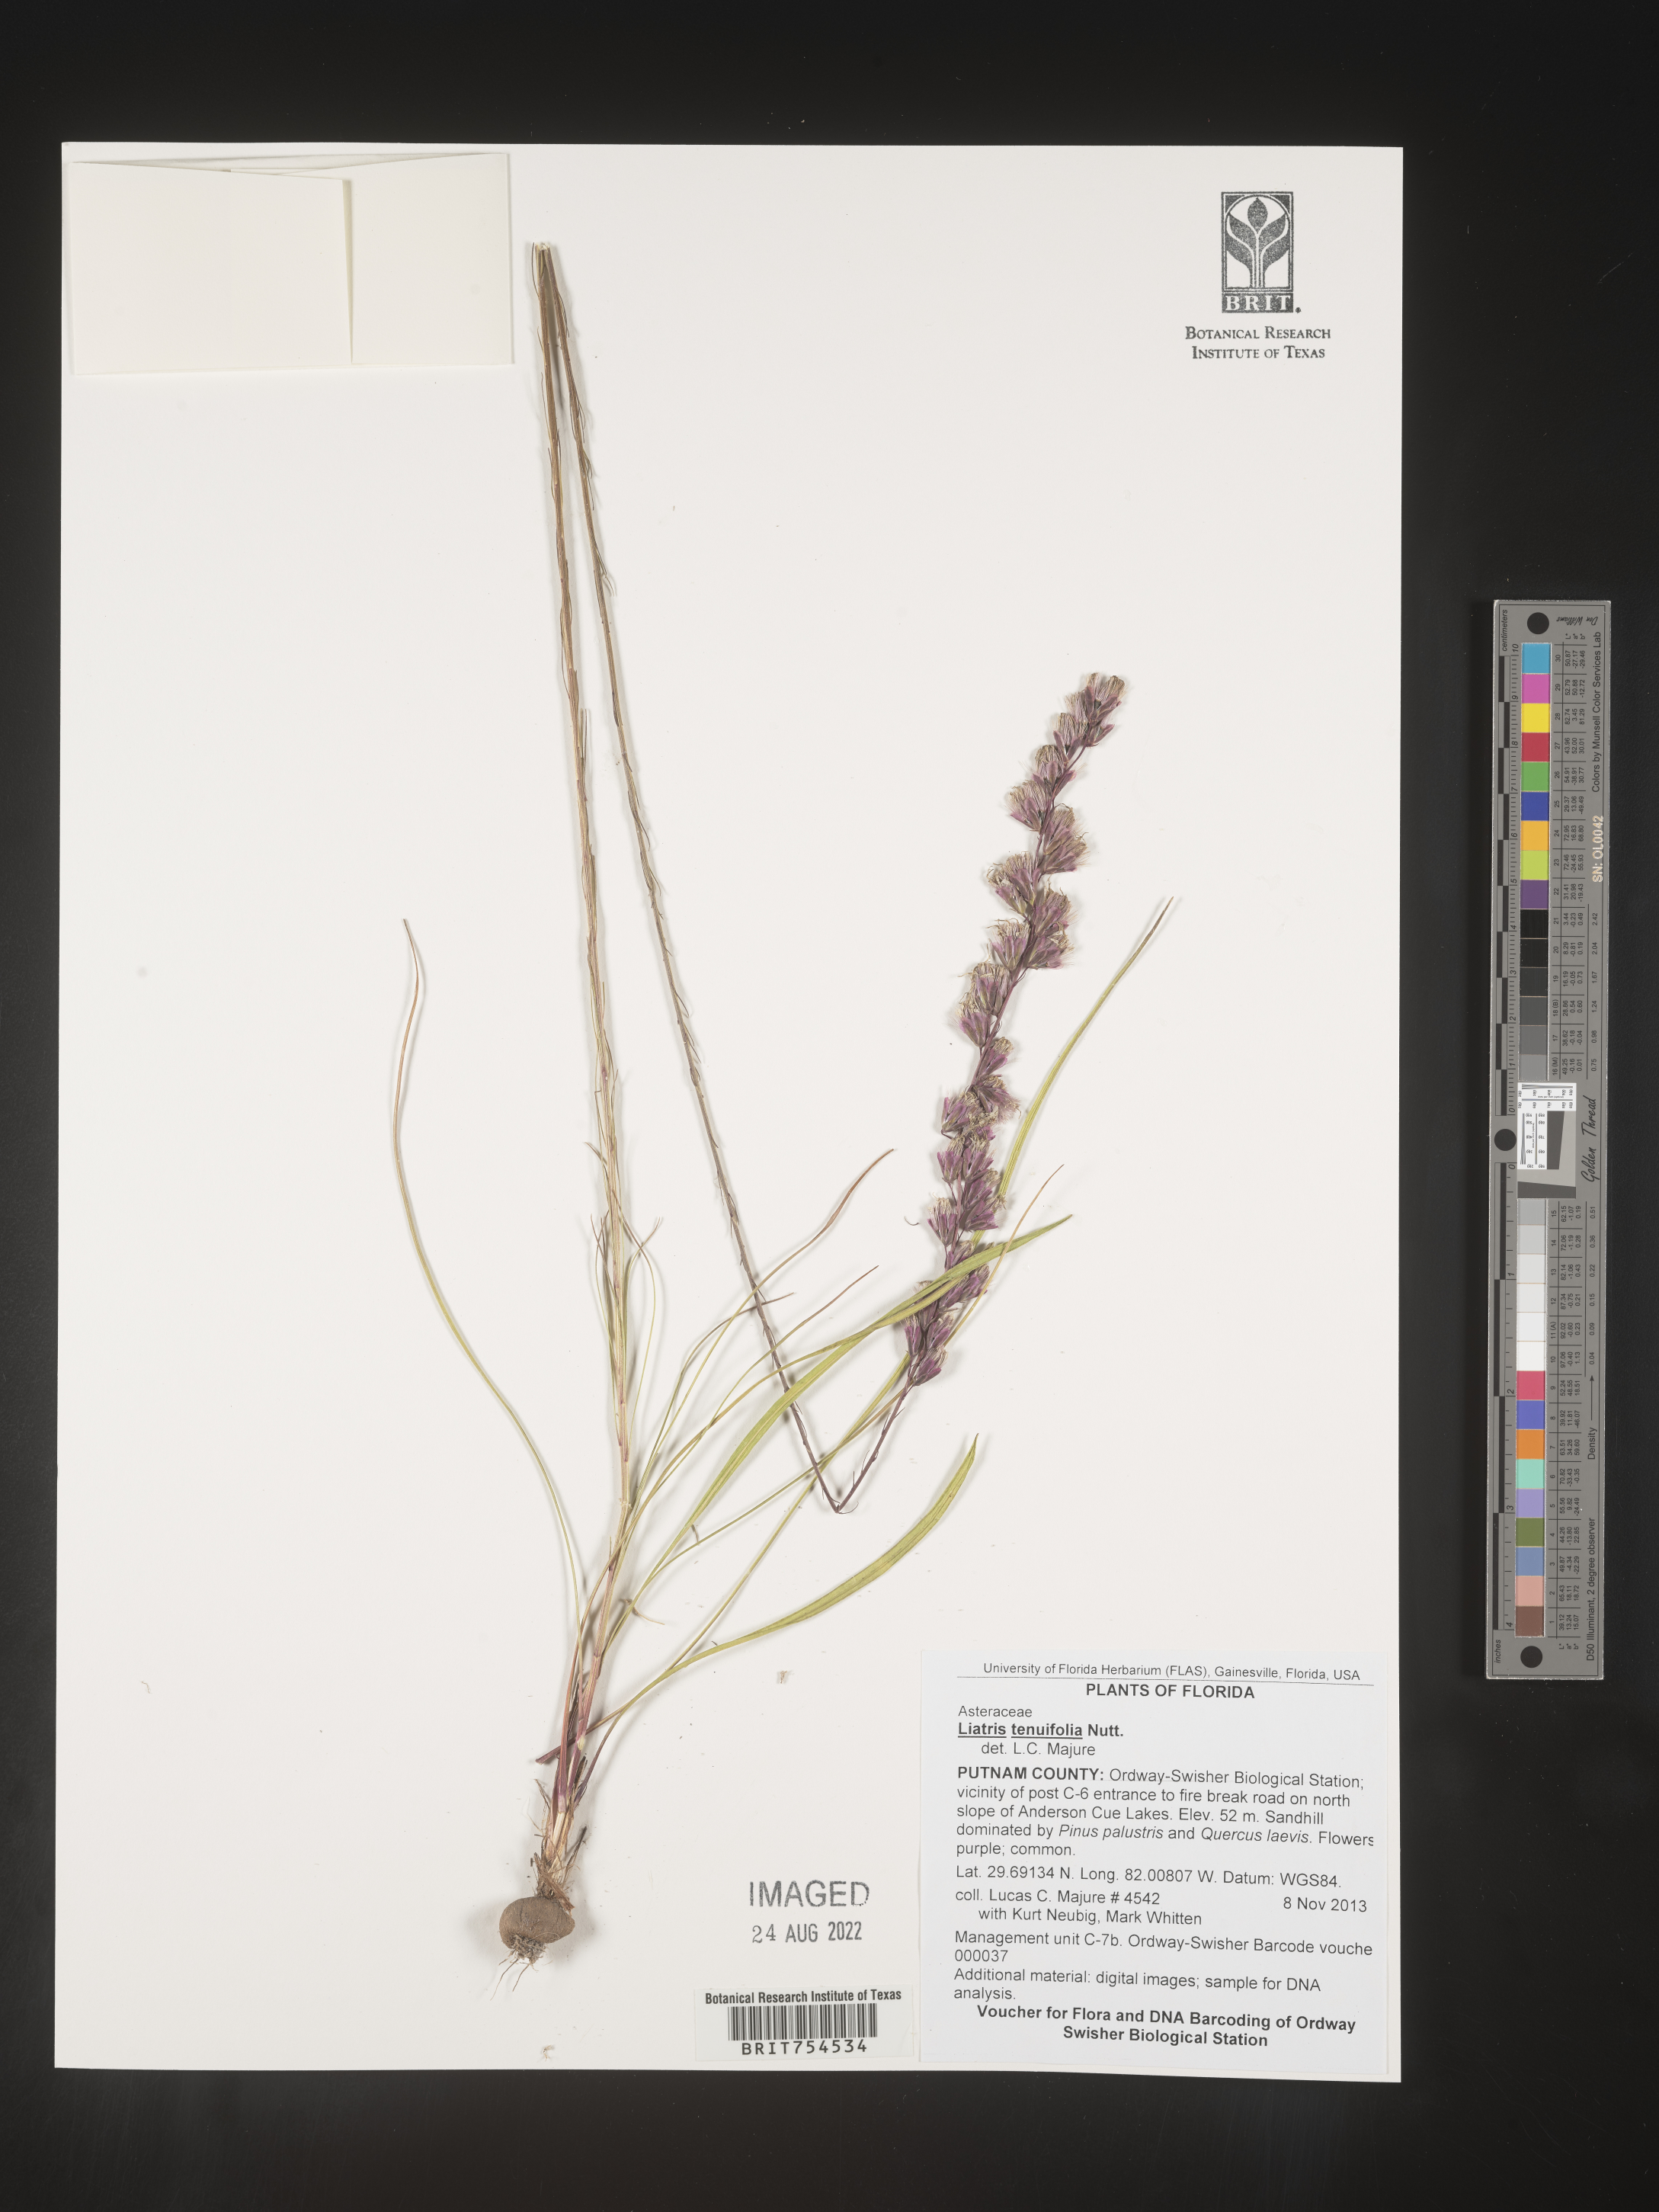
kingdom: Plantae
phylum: Tracheophyta
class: Magnoliopsida
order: Asterales
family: Asteraceae
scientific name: Asteraceae
